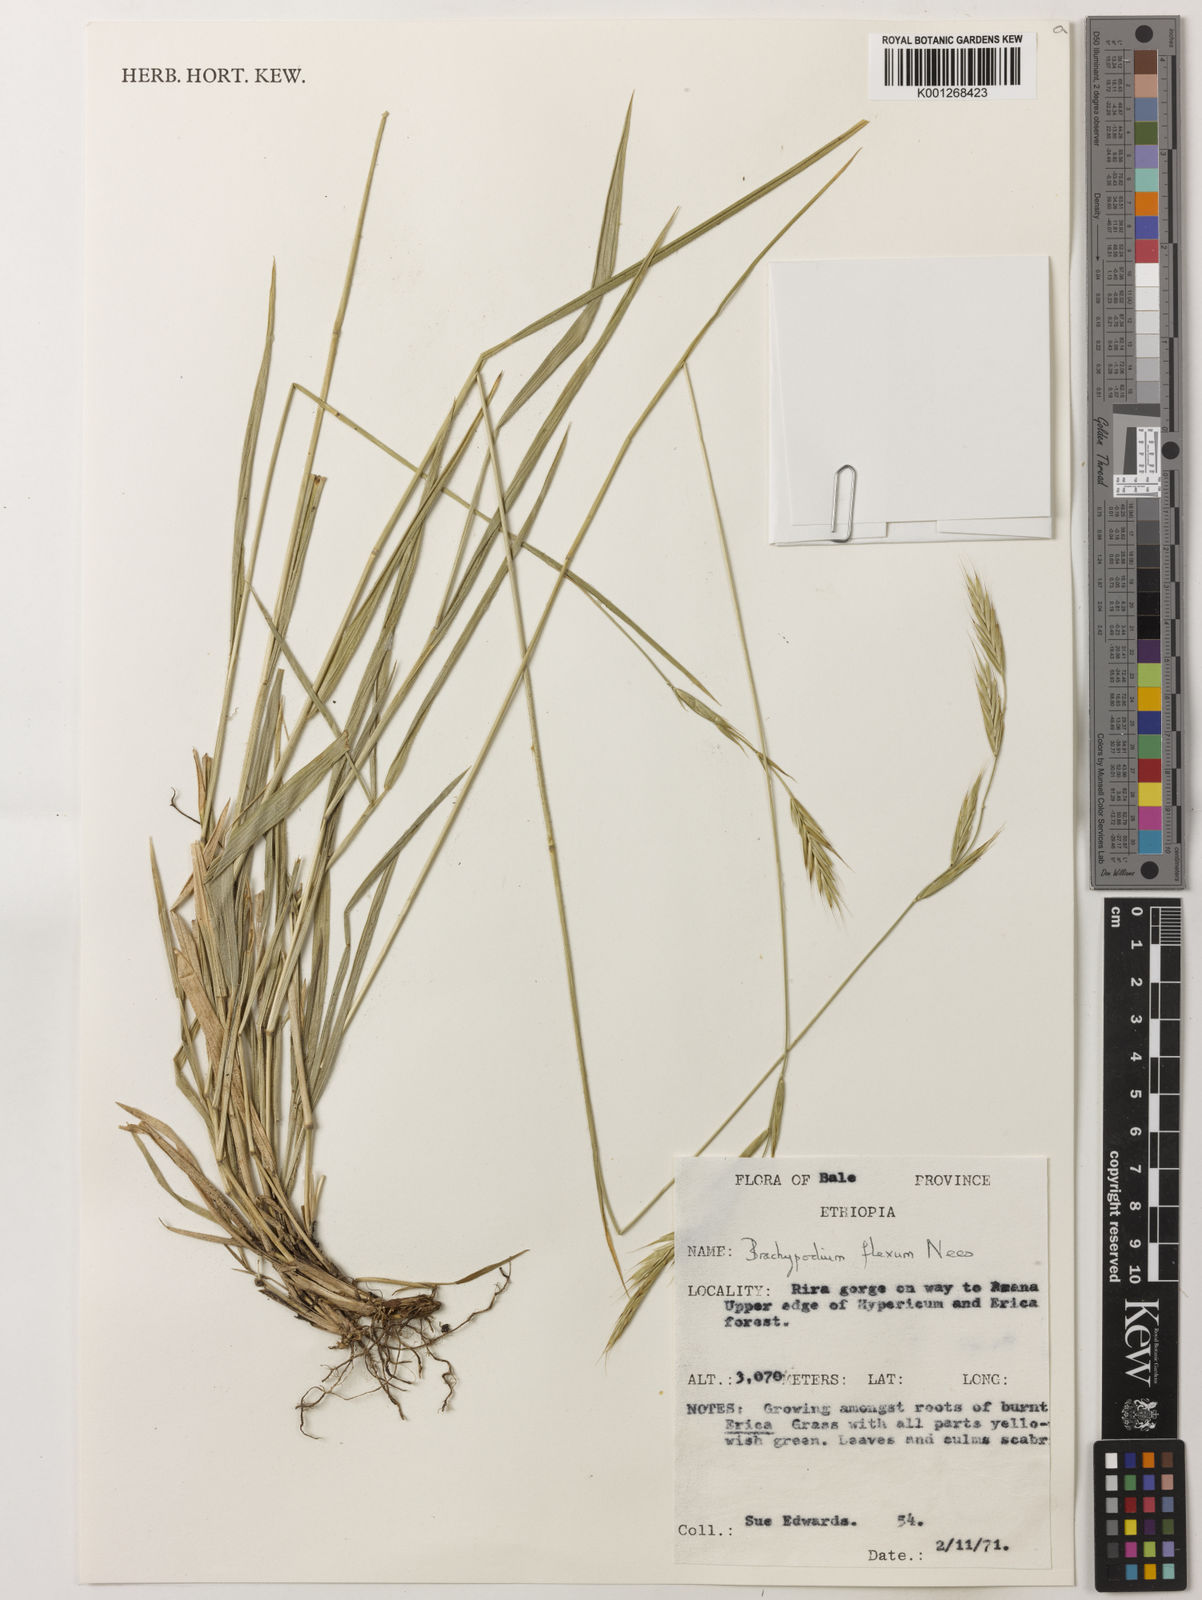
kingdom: Plantae
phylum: Tracheophyta
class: Liliopsida
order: Poales
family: Poaceae
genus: Brachypodium
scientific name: Brachypodium flexum
